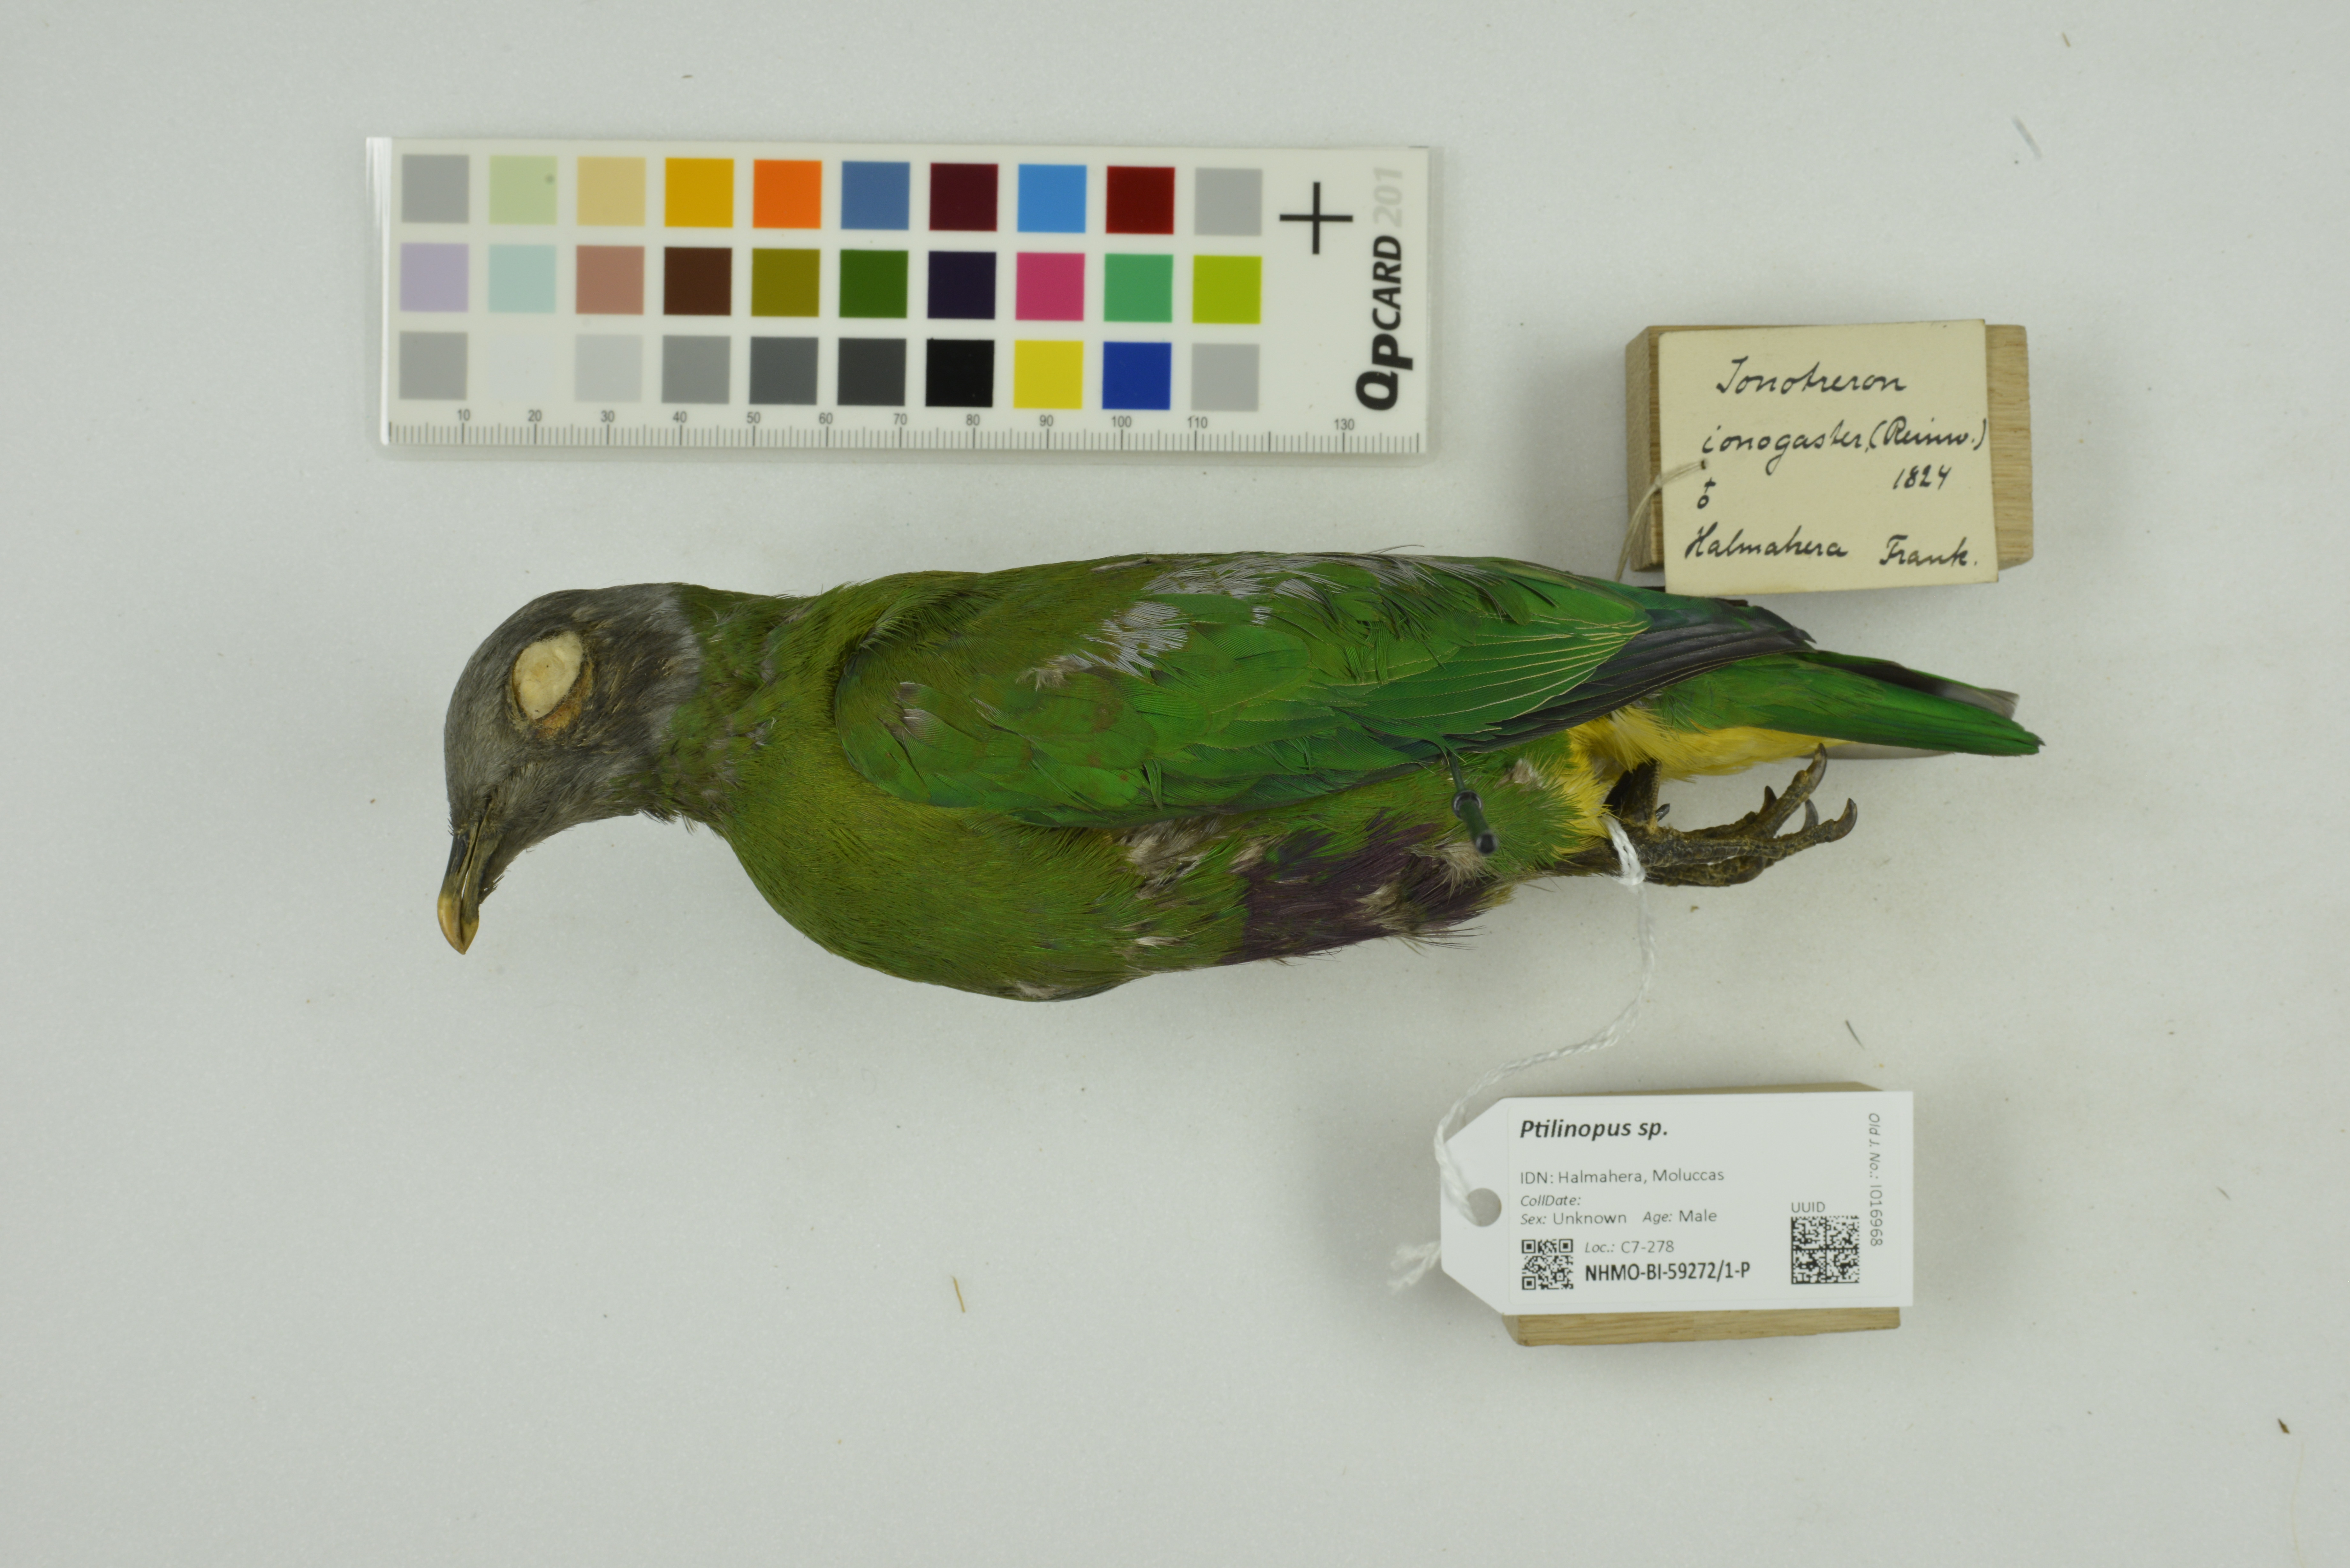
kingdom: Animalia
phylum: Chordata
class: Aves
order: Columbiformes
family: Columbidae
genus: Ptilinopus
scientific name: Ptilinopus
